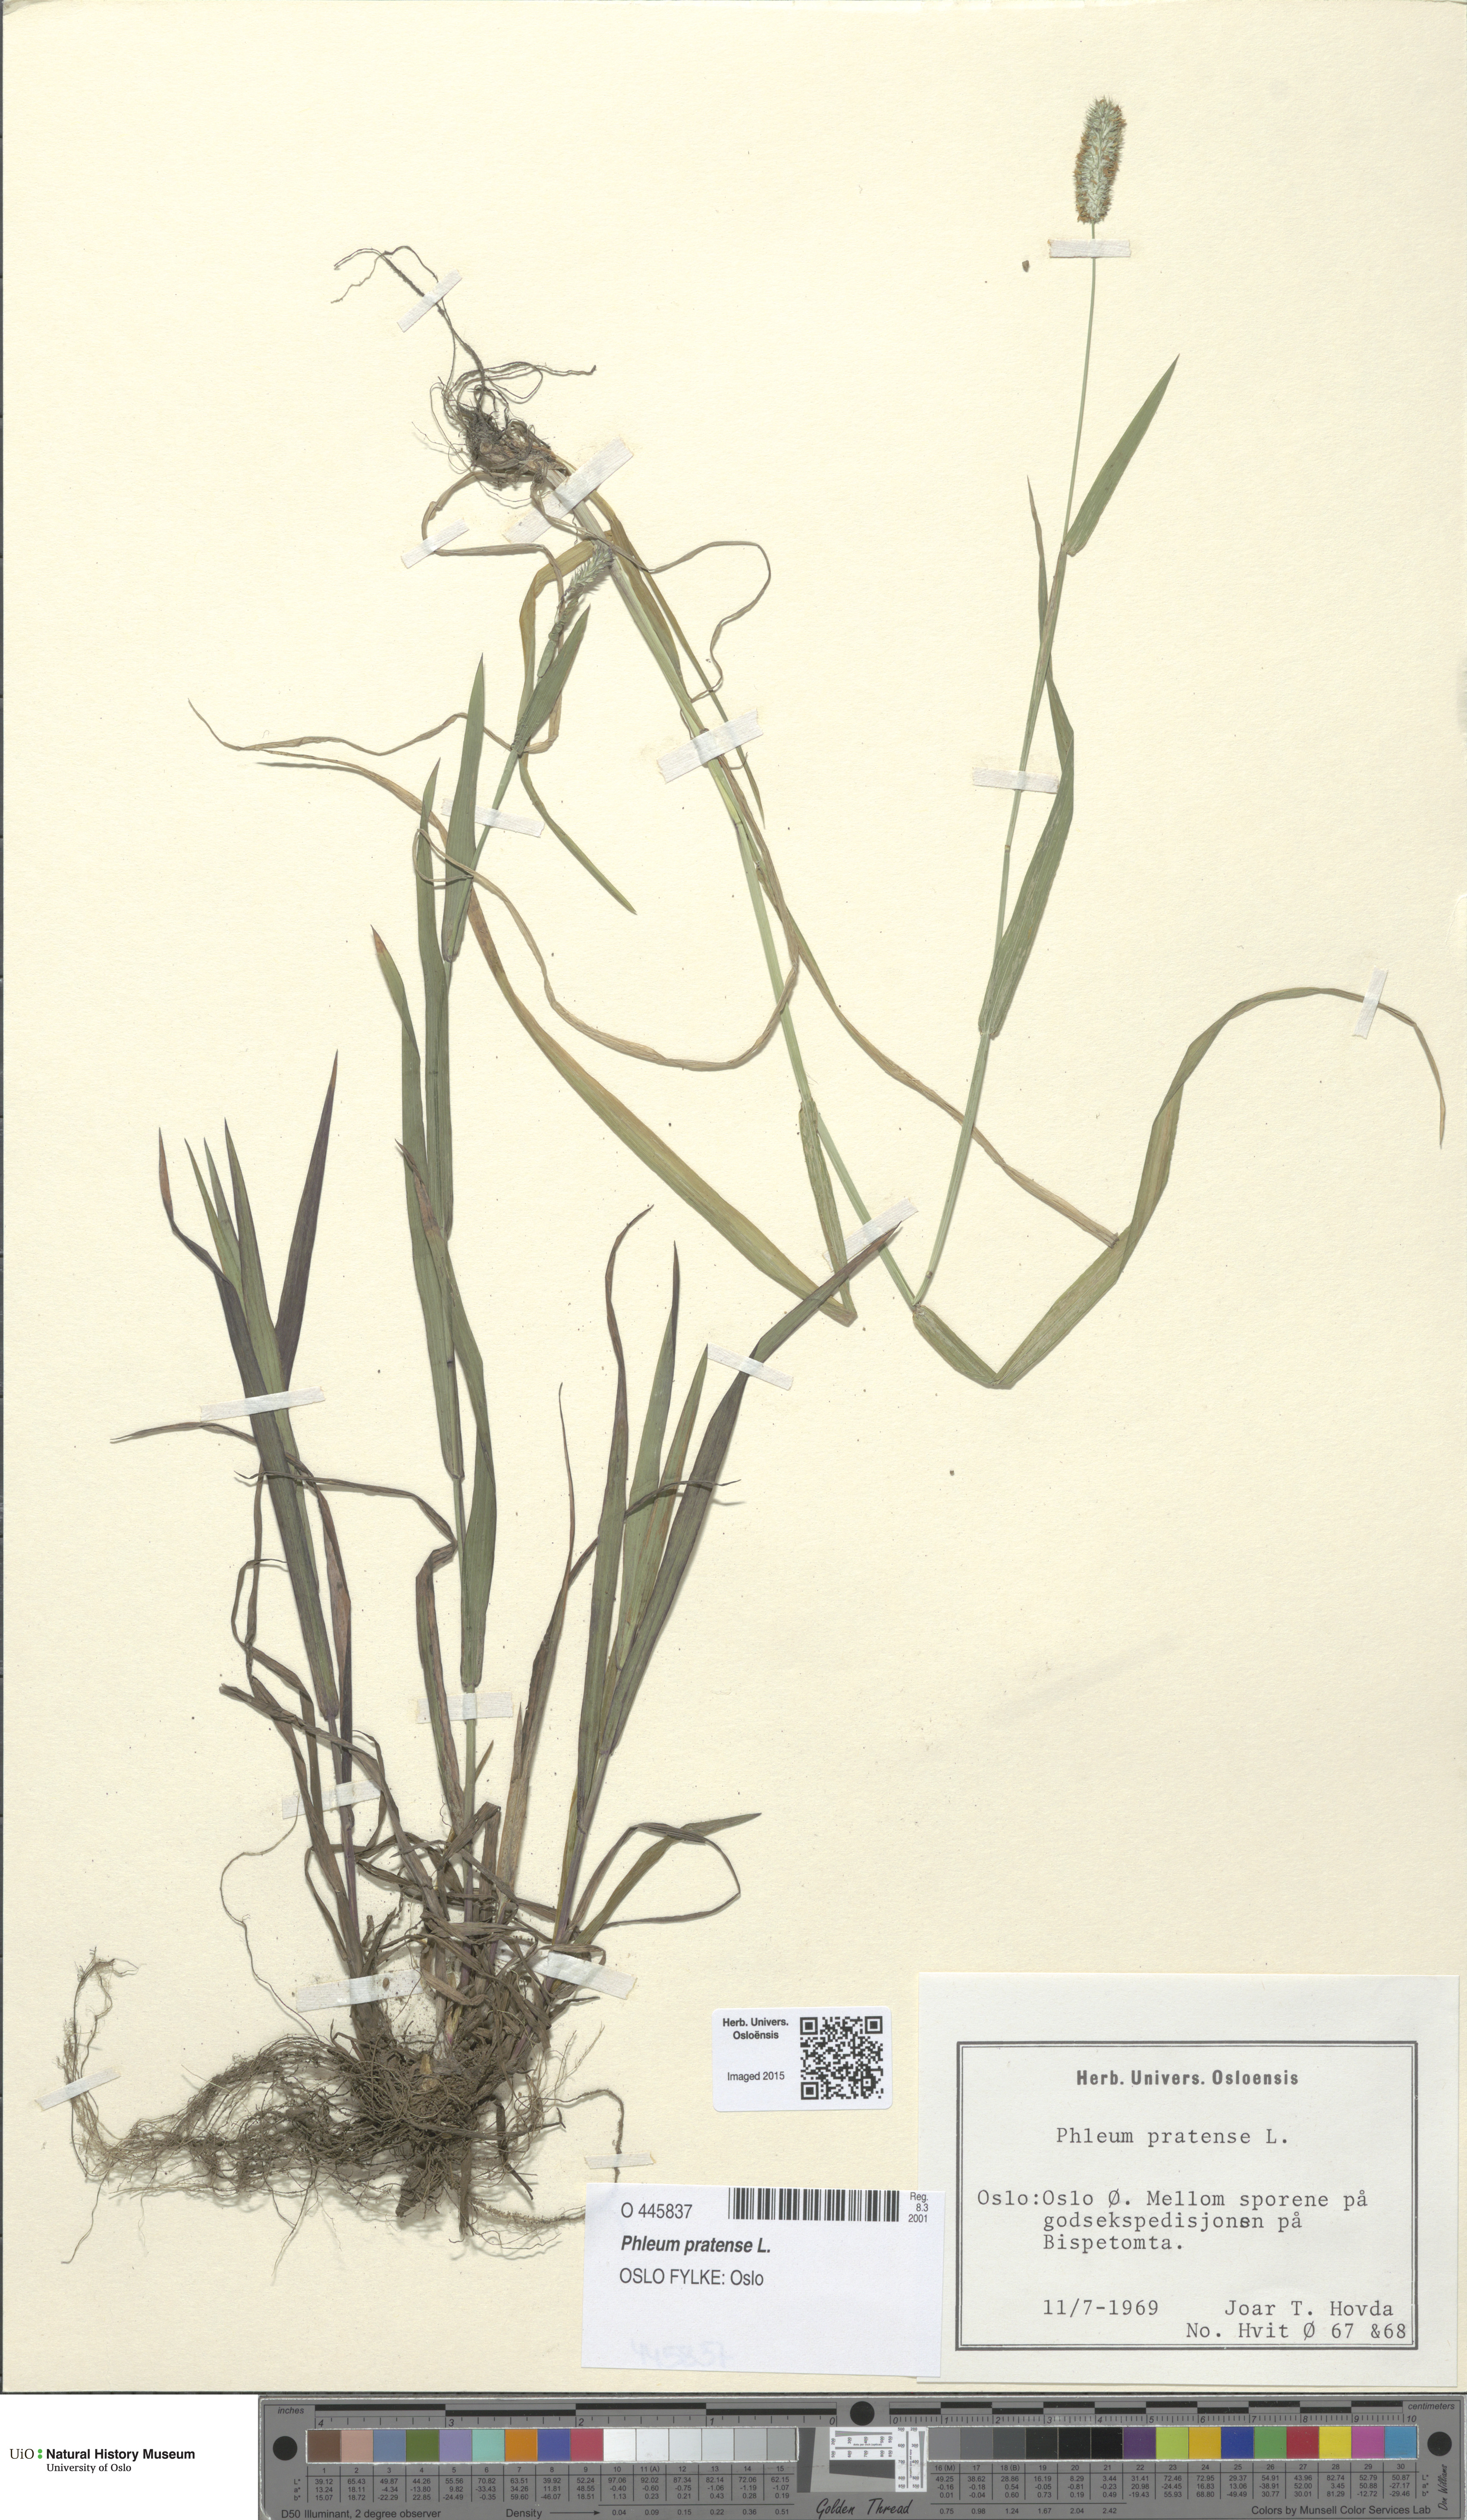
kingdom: Plantae
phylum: Tracheophyta
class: Liliopsida
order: Poales
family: Poaceae
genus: Phleum
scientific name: Phleum pratense
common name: Timothy grass
